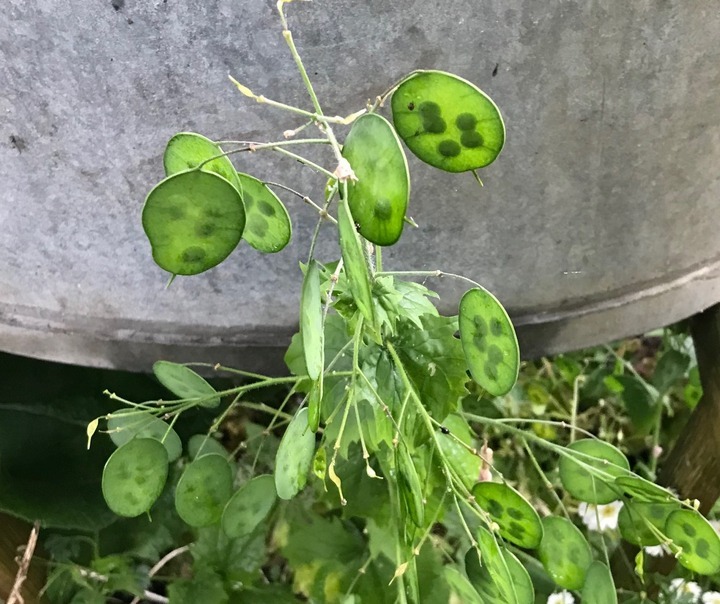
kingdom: Plantae
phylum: Tracheophyta
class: Magnoliopsida
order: Brassicales
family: Brassicaceae
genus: Lunaria
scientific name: Lunaria annua
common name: Judaspenge
